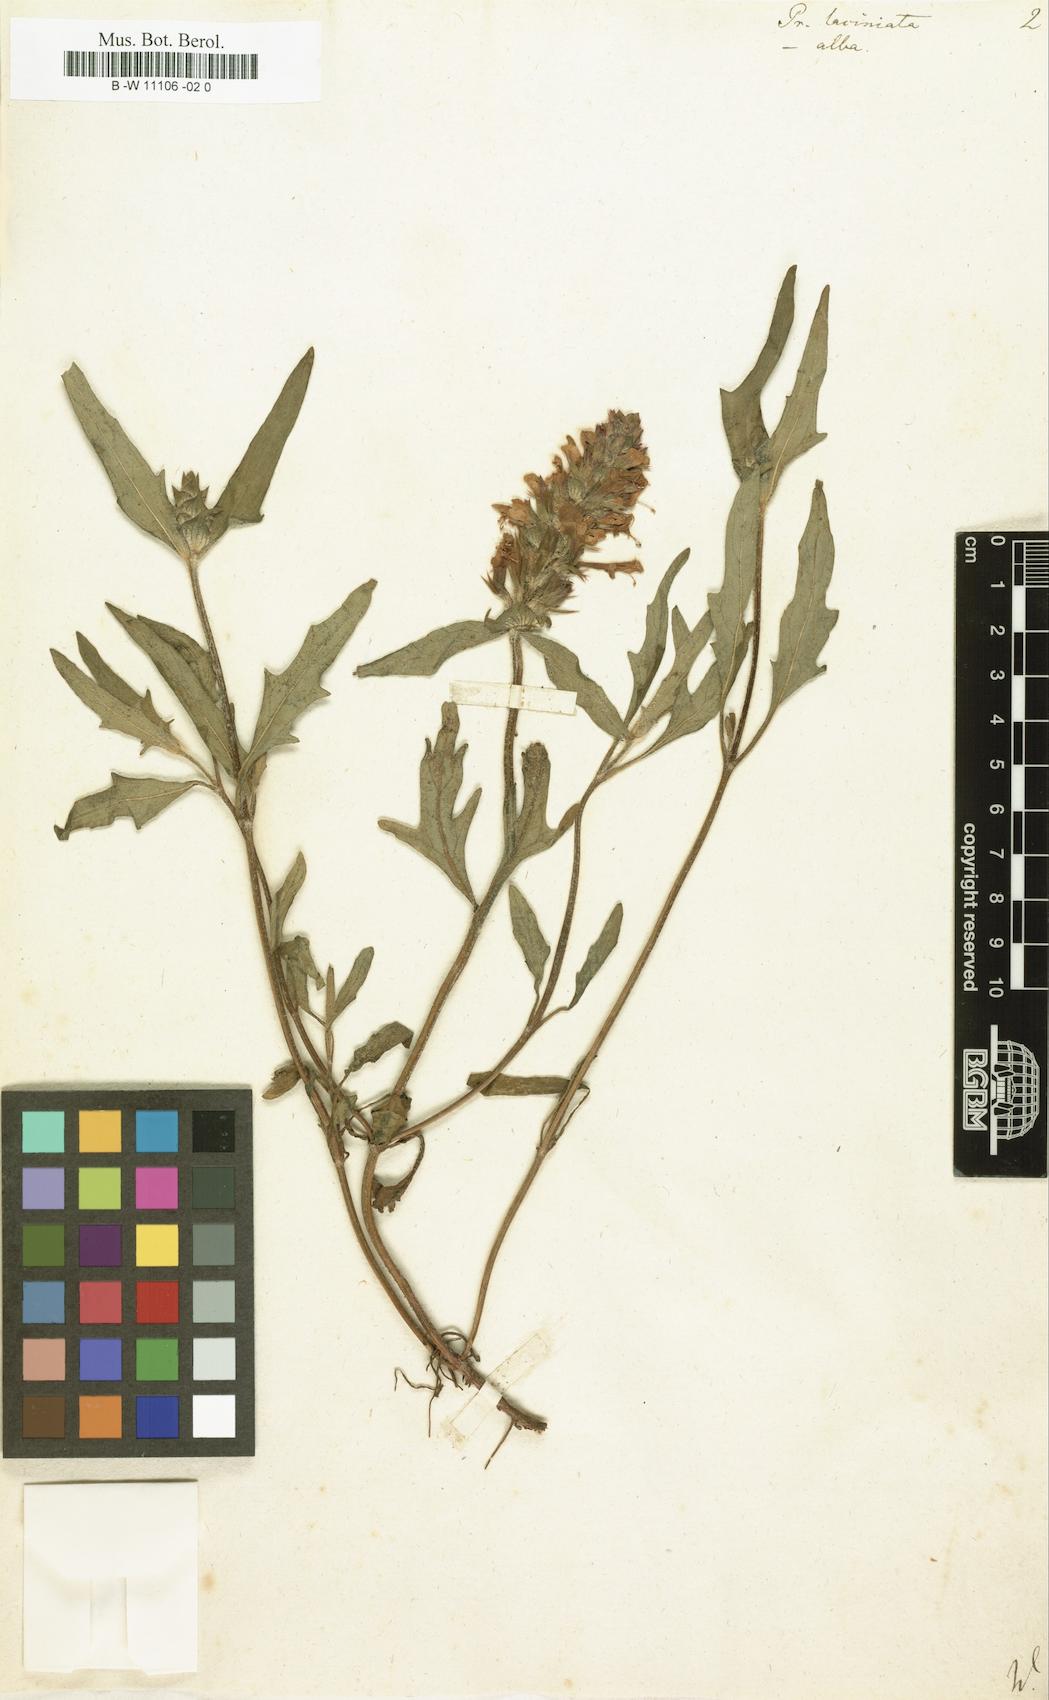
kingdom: Plantae
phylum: Tracheophyta
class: Magnoliopsida
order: Lamiales
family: Lamiaceae
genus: Prunella
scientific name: Prunella laciniata
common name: Cut-leaved selfheal
